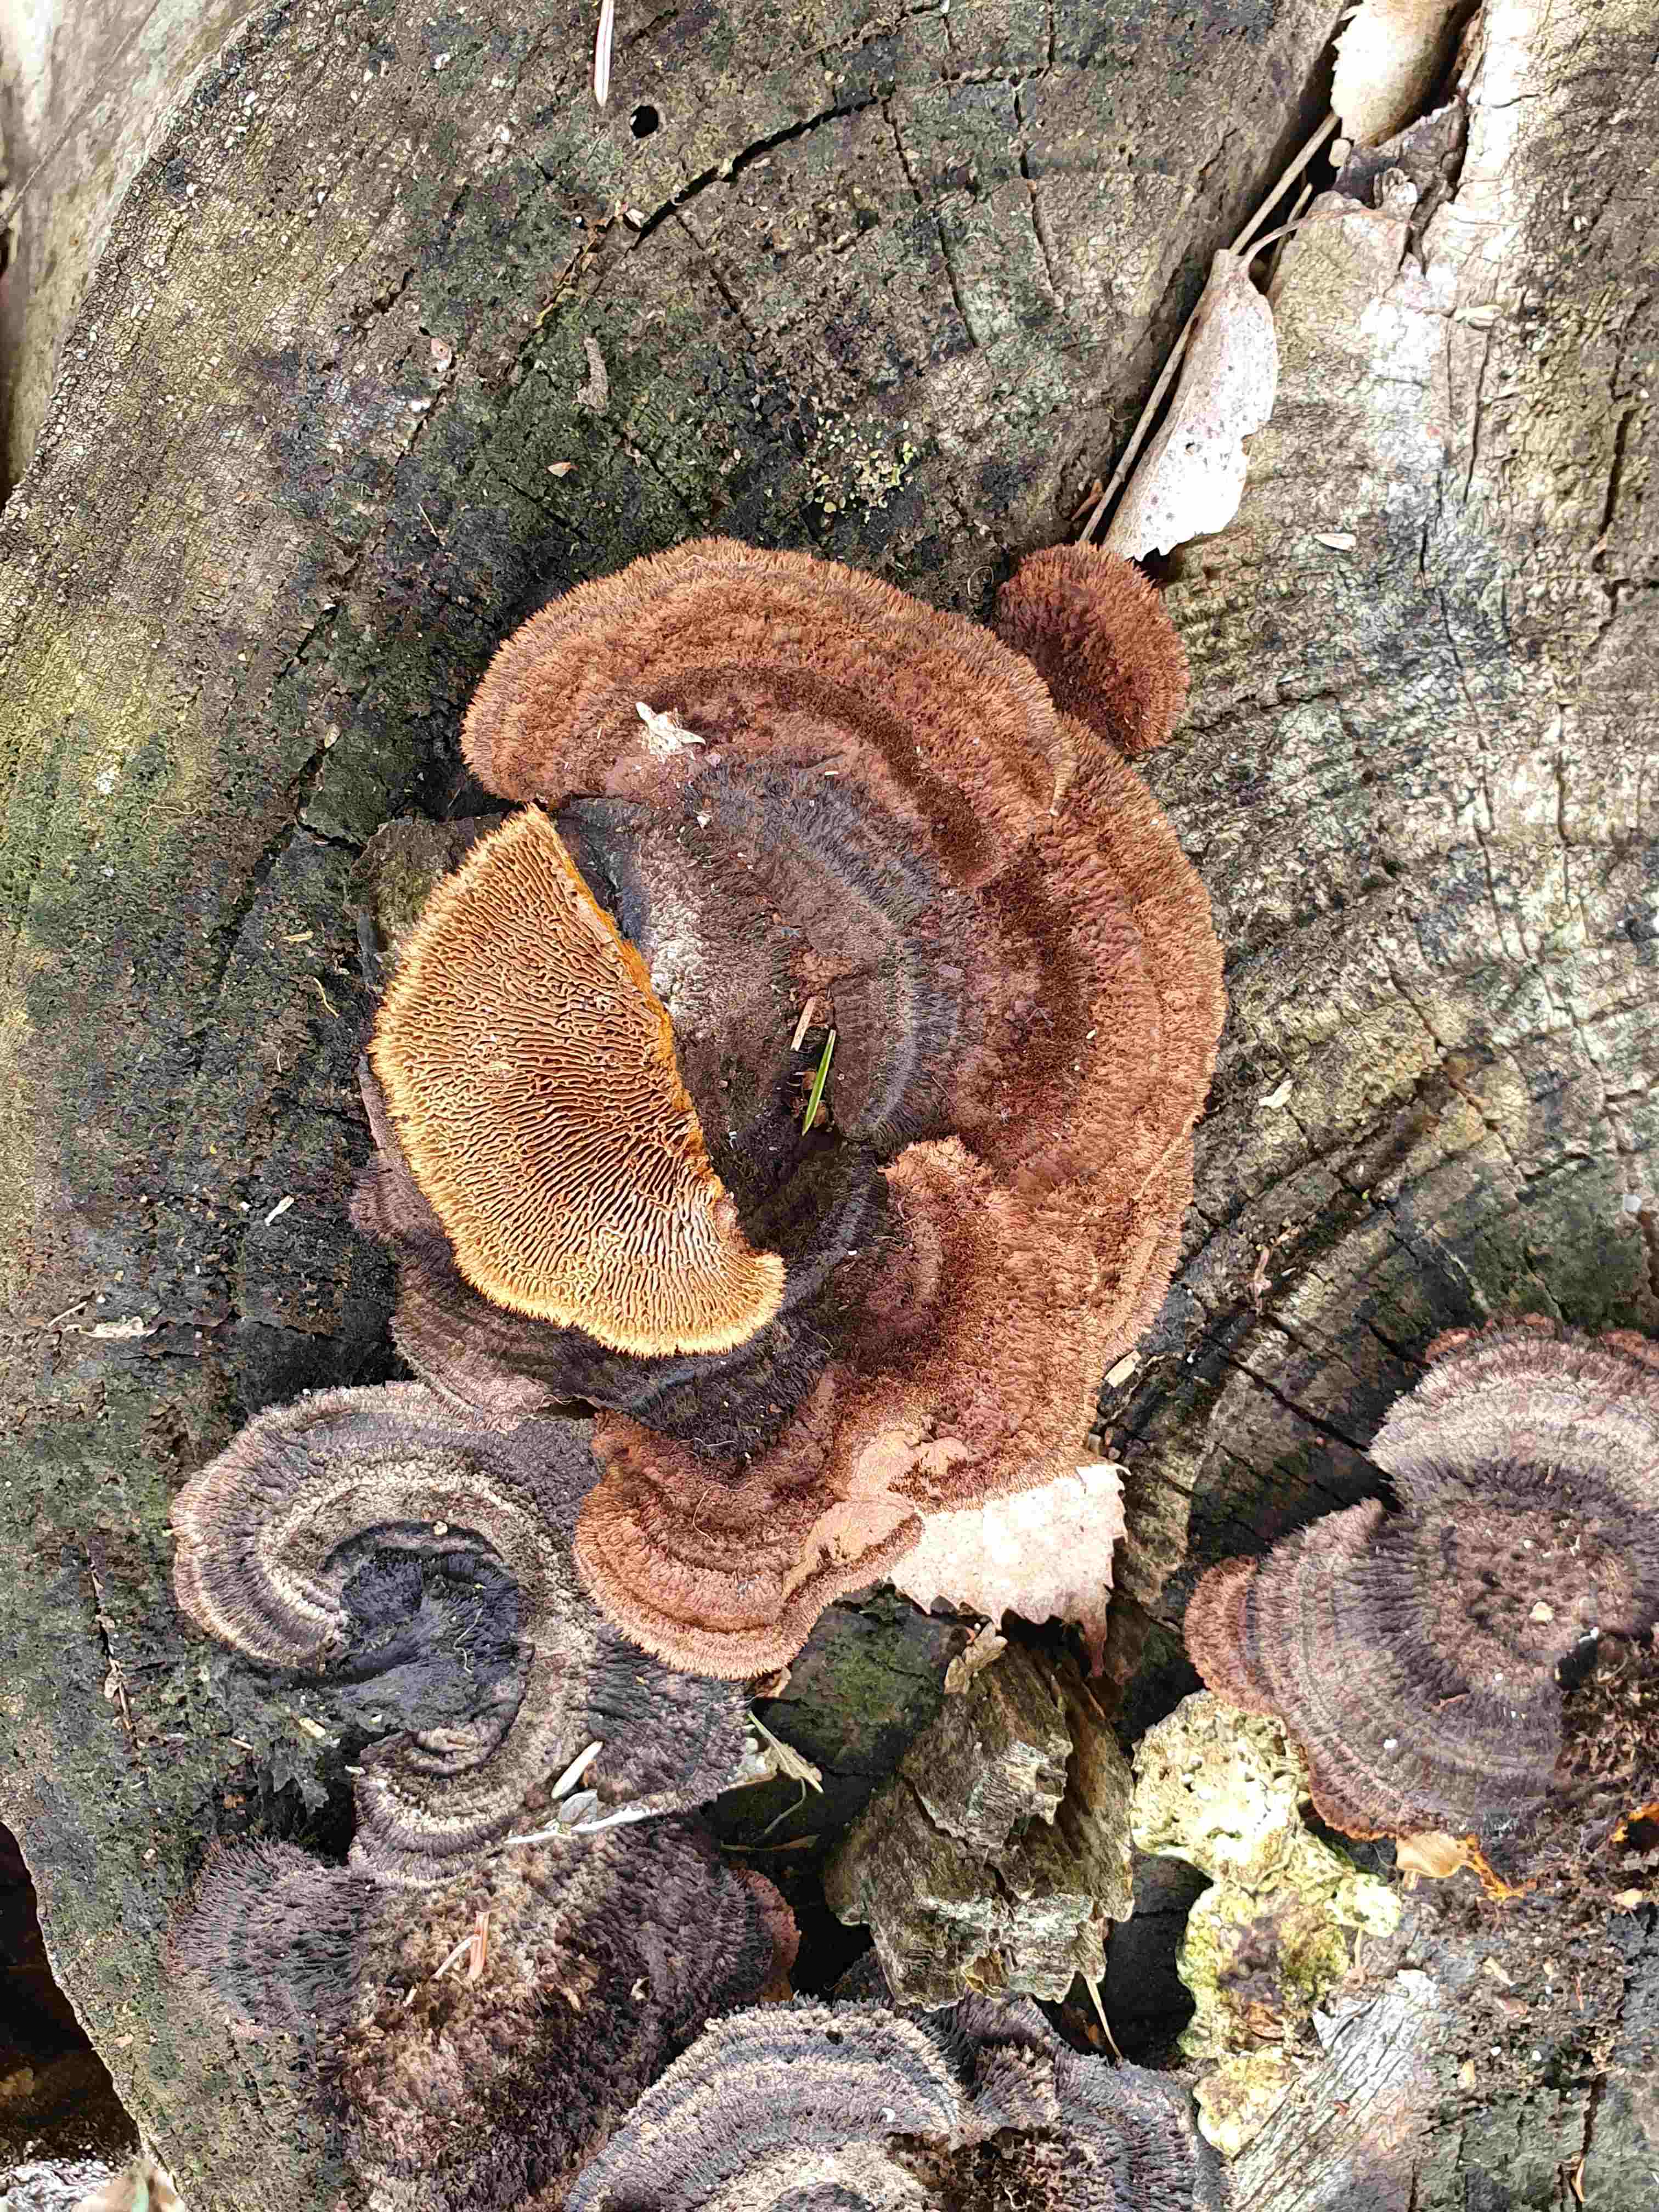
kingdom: Fungi
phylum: Basidiomycota
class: Agaricomycetes
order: Gloeophyllales
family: Gloeophyllaceae
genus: Gloeophyllum
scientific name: Gloeophyllum sepiarium
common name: fyrre-korkhat
